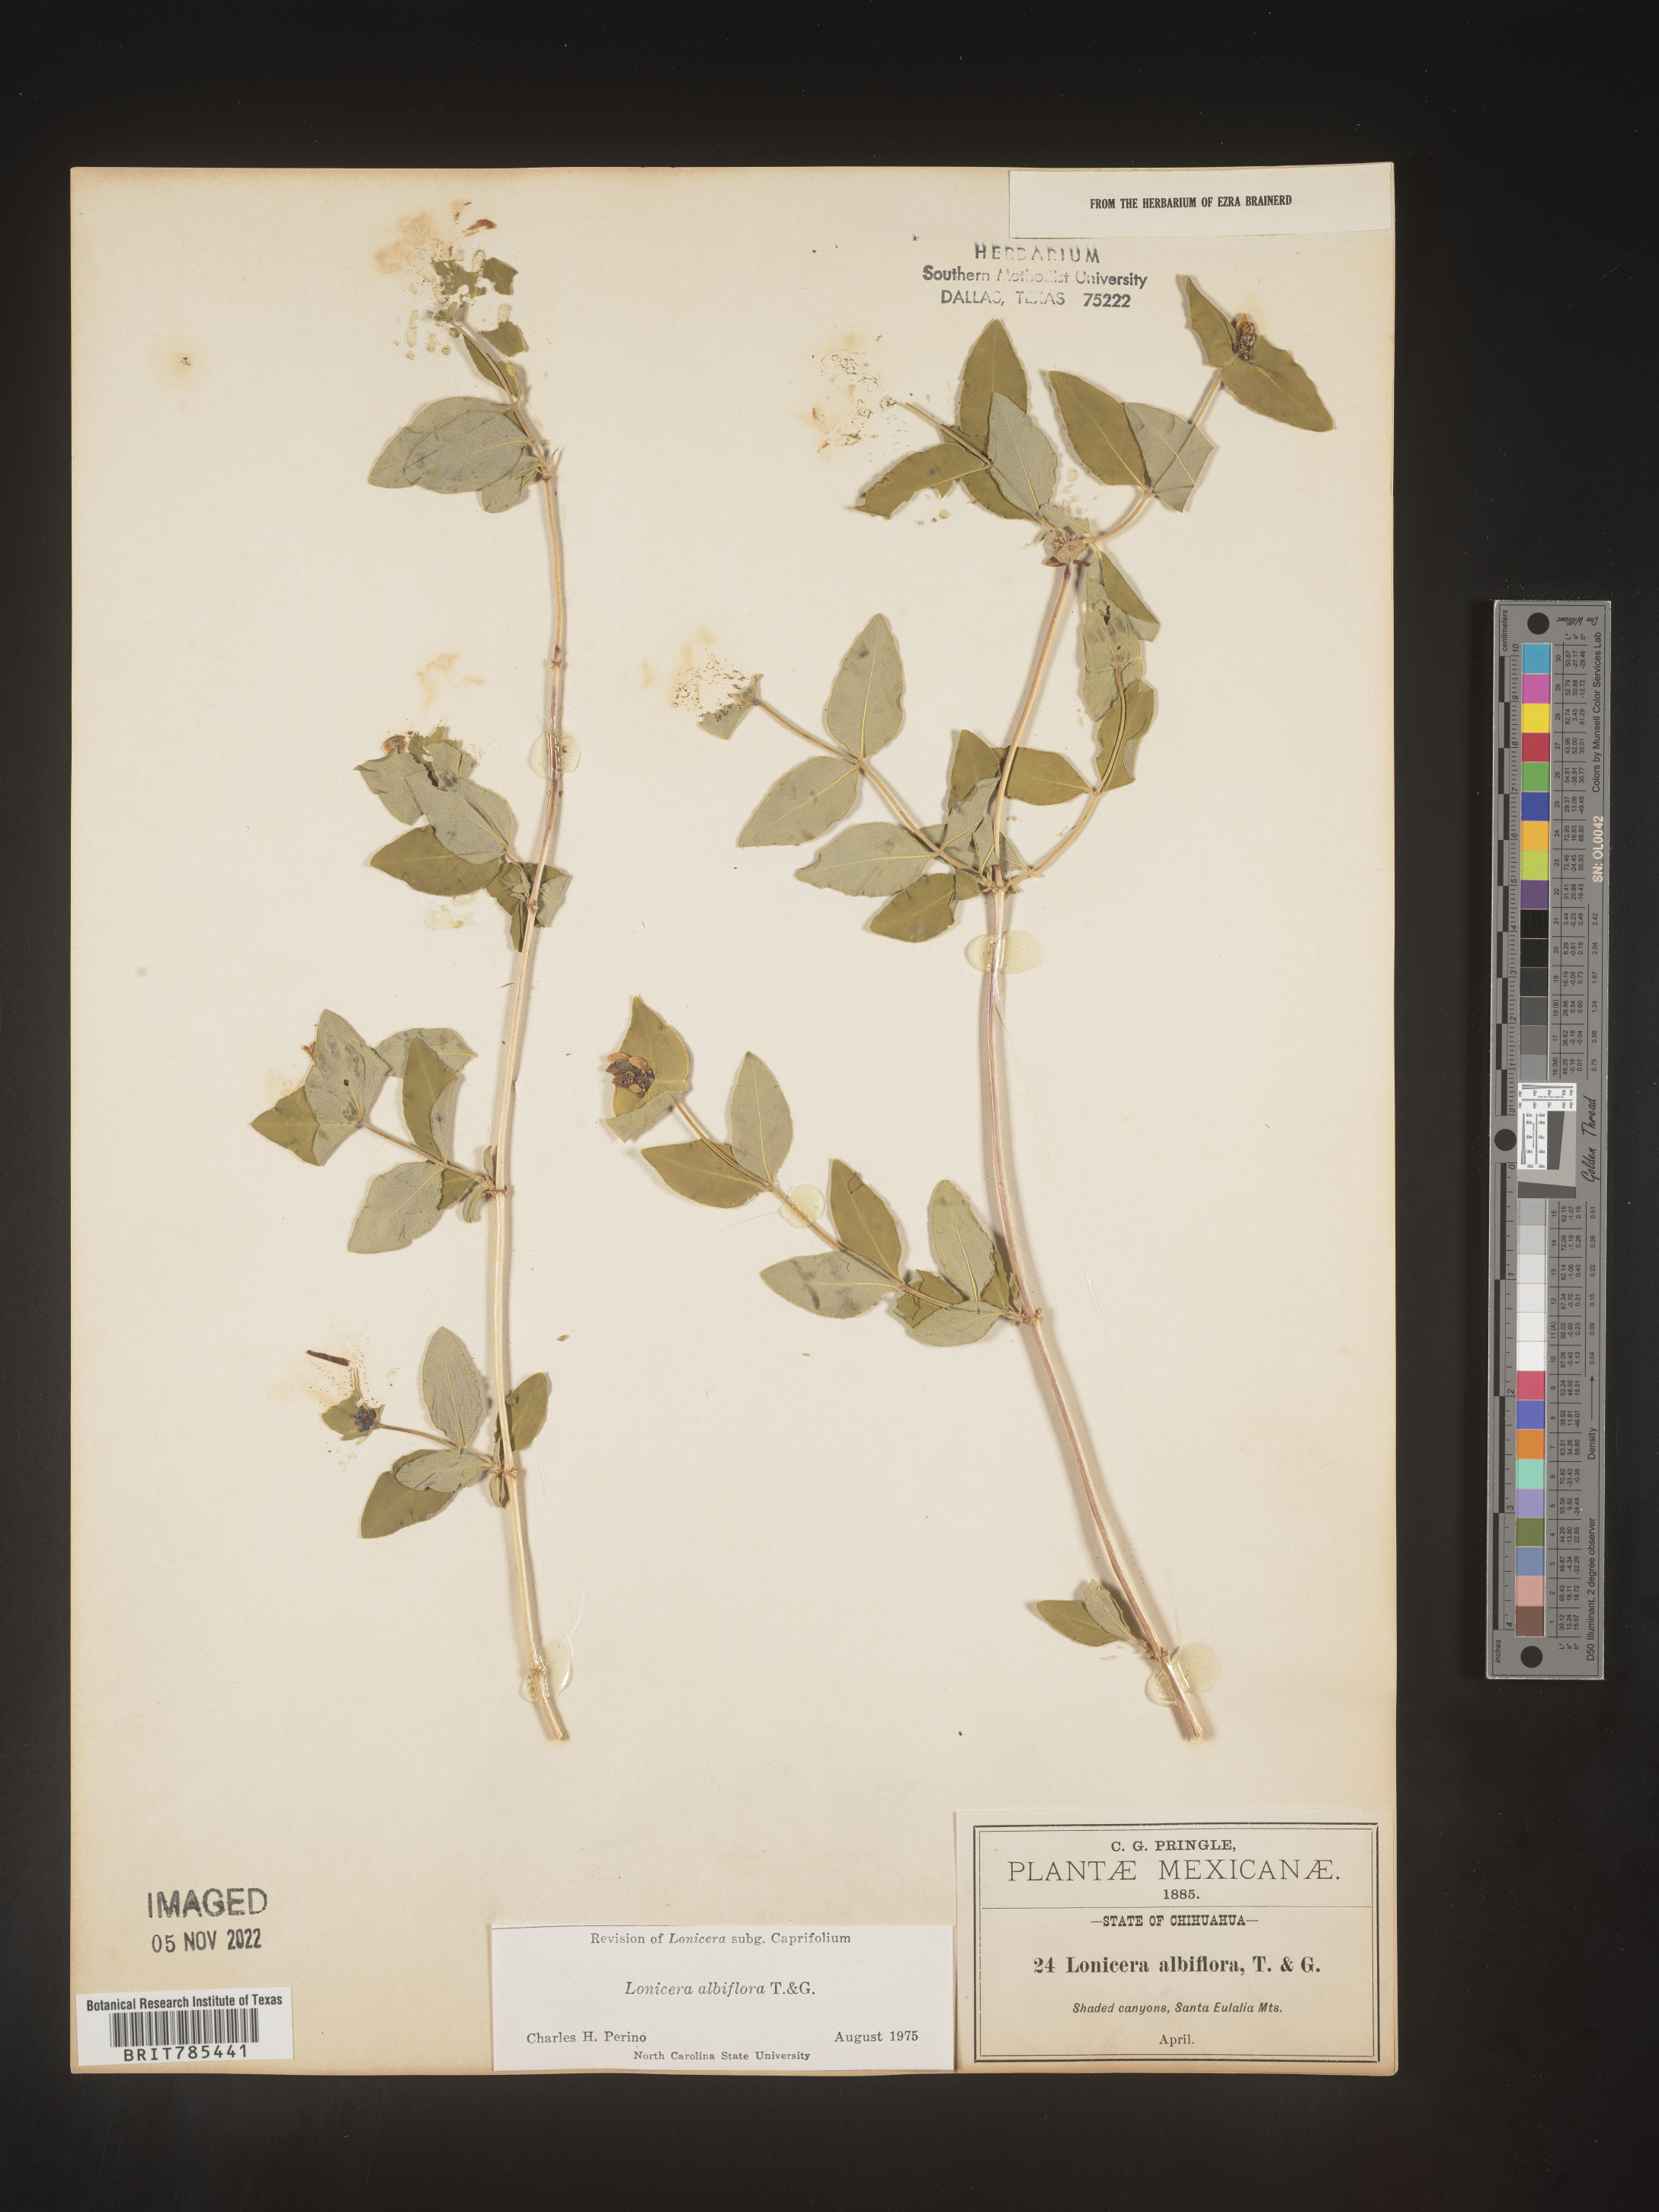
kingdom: Plantae
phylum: Tracheophyta
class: Magnoliopsida
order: Dipsacales
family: Caprifoliaceae
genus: Lonicera
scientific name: Lonicera
